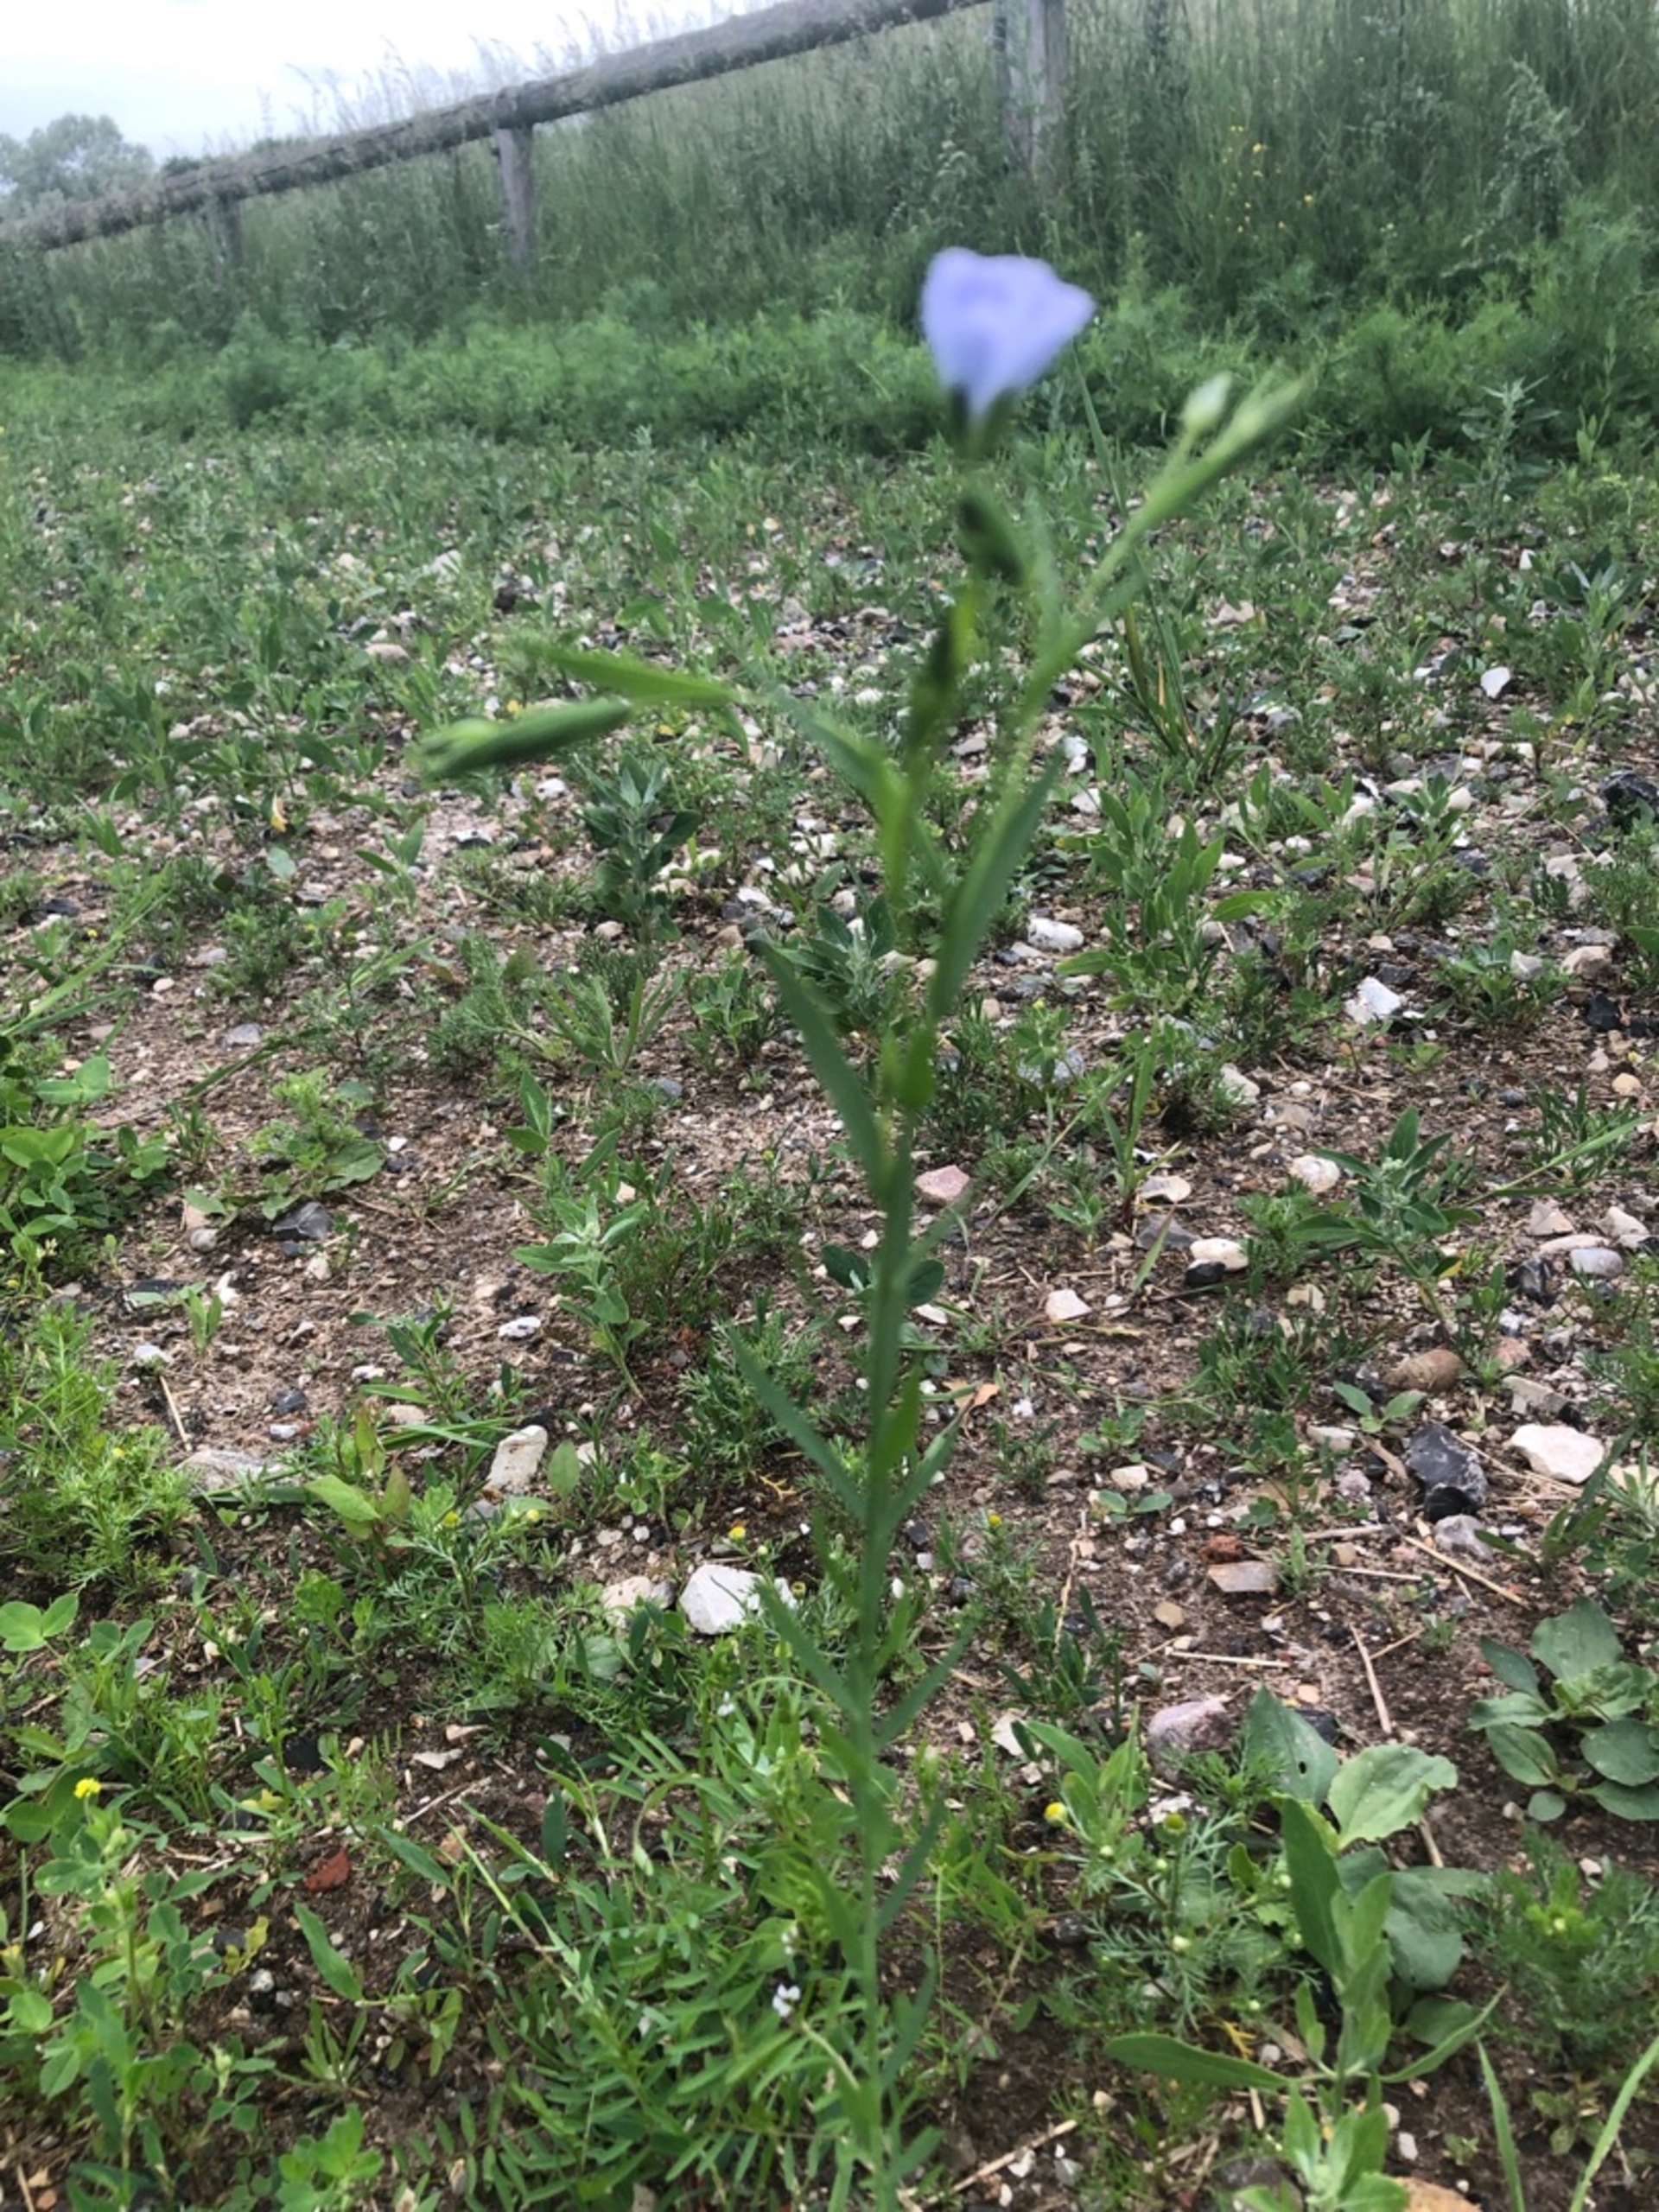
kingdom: Plantae
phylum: Tracheophyta
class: Magnoliopsida
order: Malpighiales
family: Linaceae
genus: Linum
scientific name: Linum usitatissimum
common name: Almindelig hør
